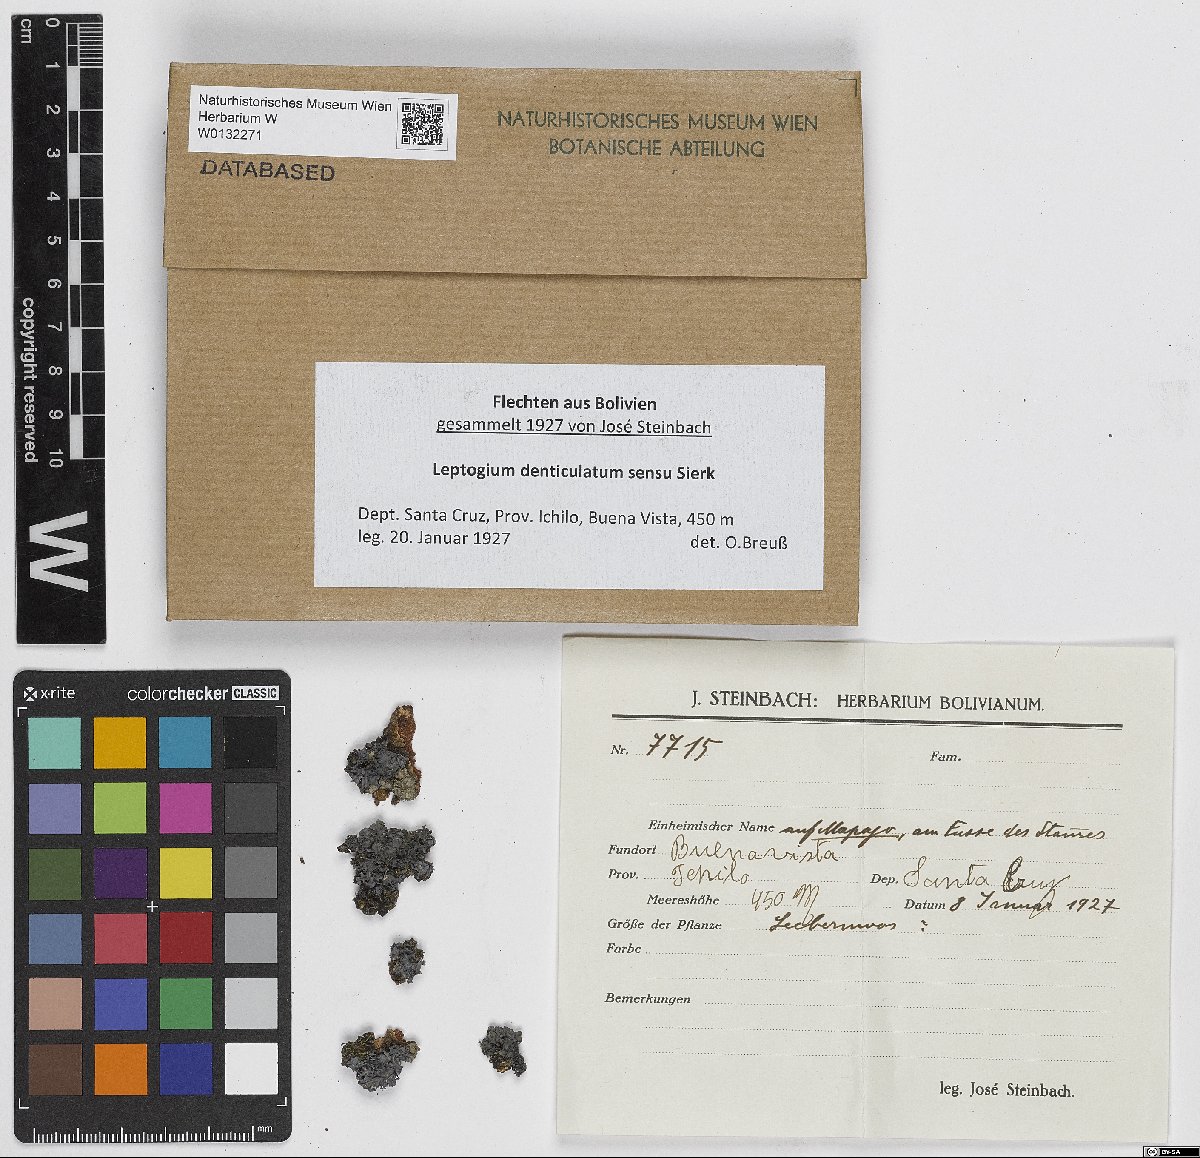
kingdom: Fungi
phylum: Ascomycota
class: Lecanoromycetes
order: Peltigerales
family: Collemataceae
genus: Leptogium
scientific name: Leptogium denticulatum
